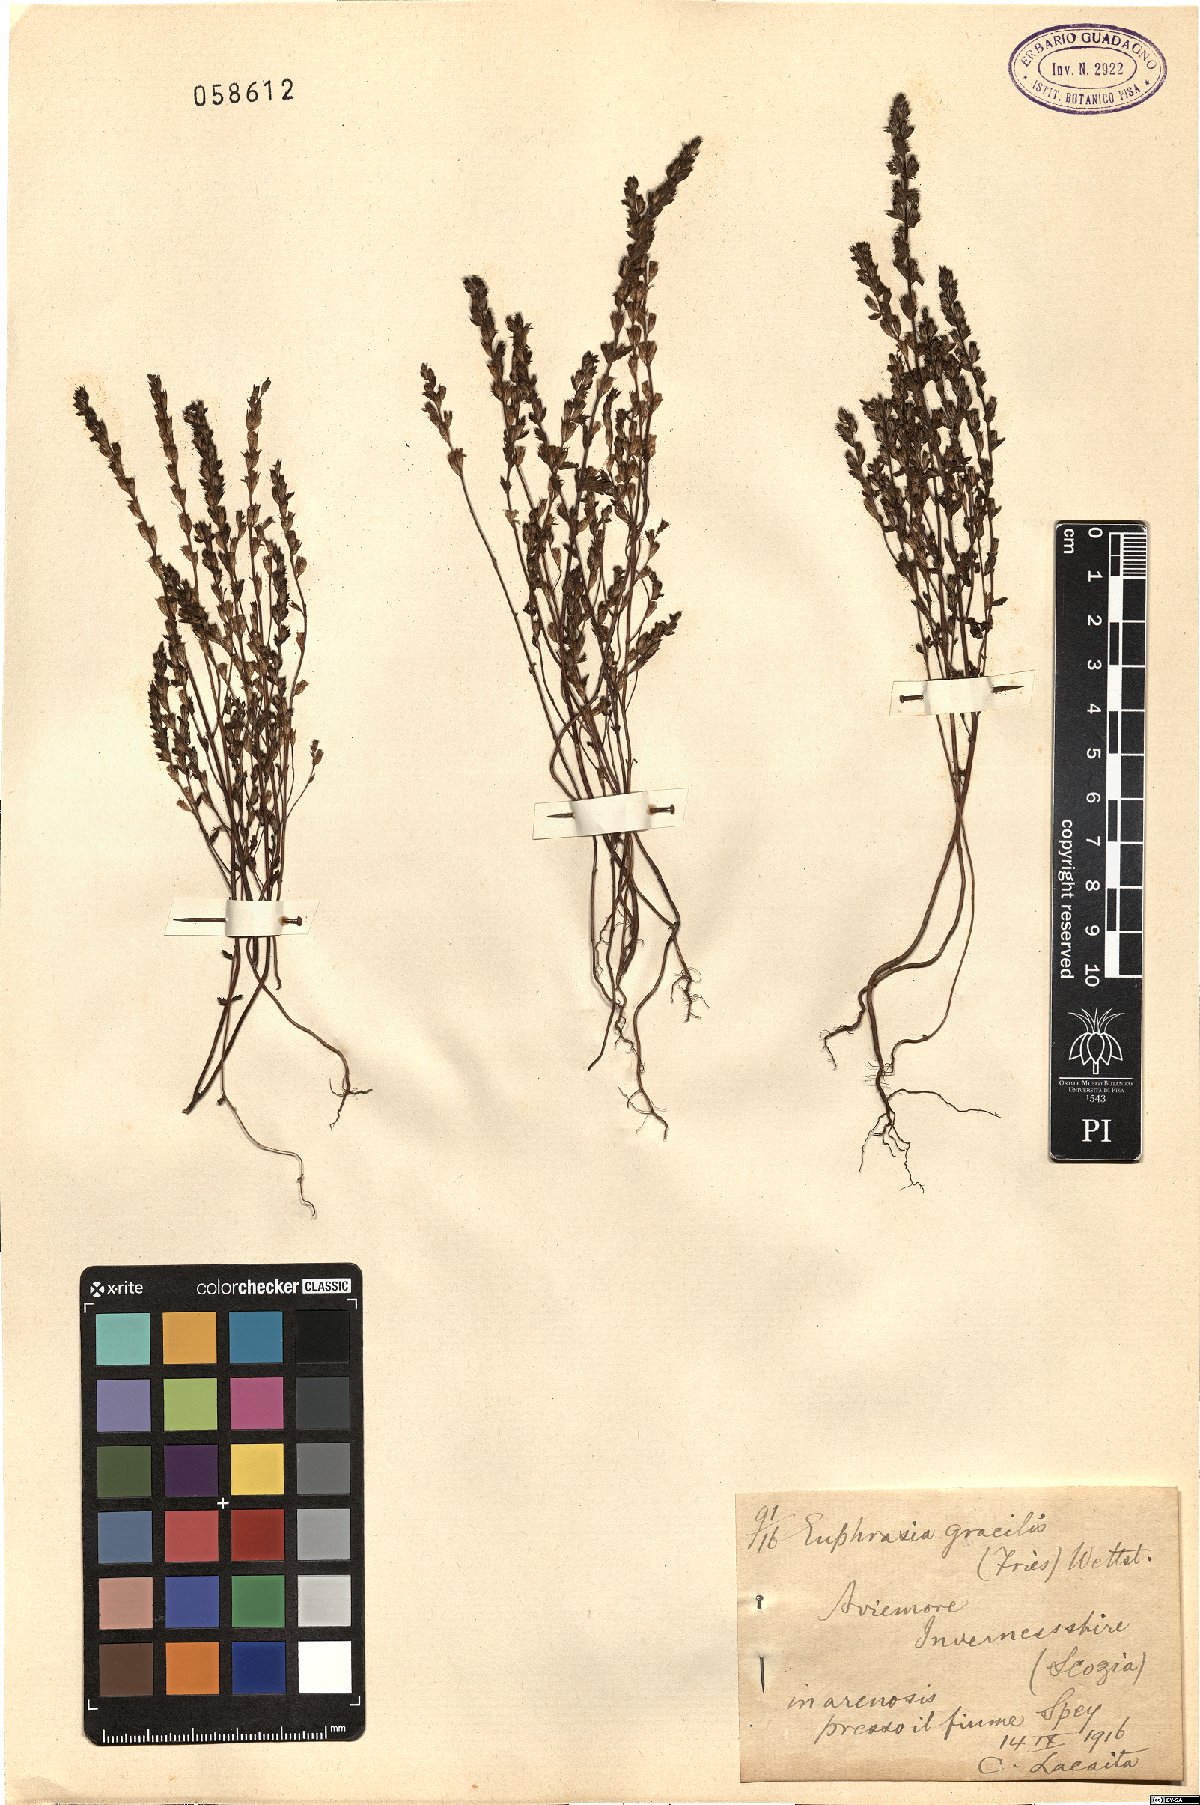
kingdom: Plantae
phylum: Tracheophyta
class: Magnoliopsida
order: Lamiales
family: Orobanchaceae
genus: Euphrasia
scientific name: Euphrasia micrantha
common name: Northern eyebright
